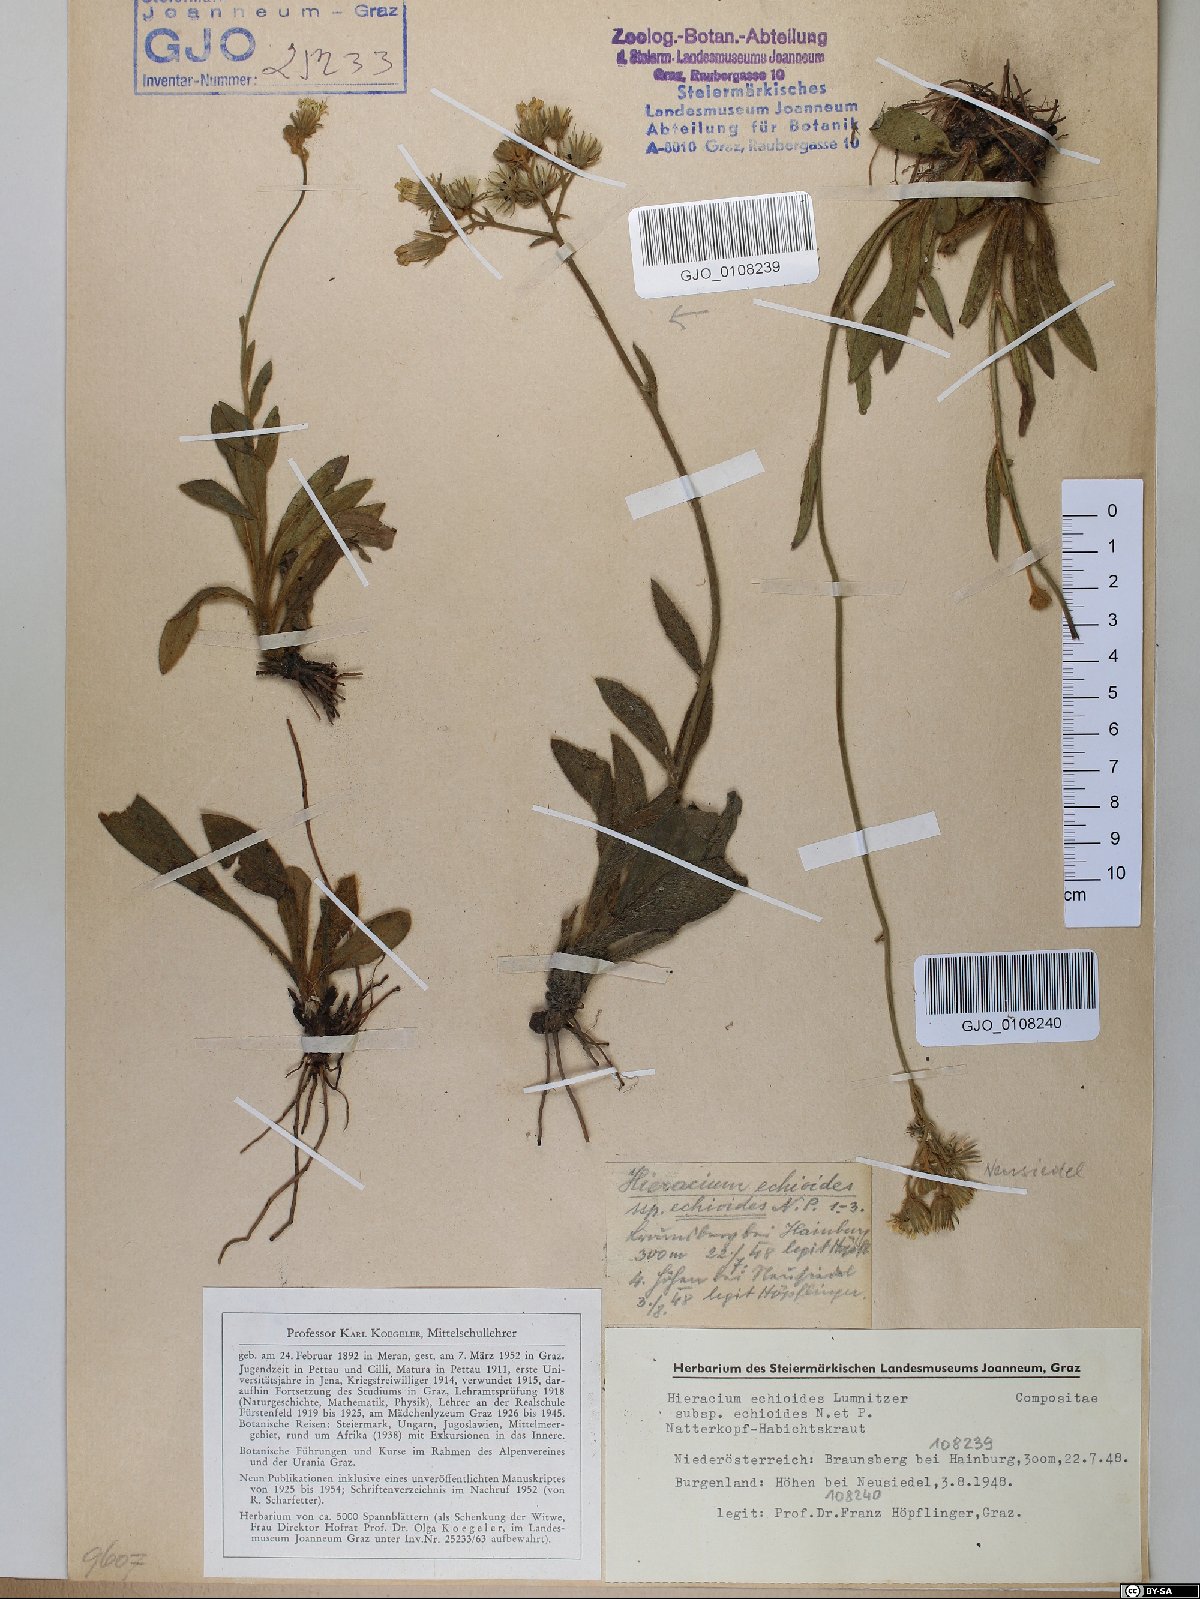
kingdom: Plantae
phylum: Tracheophyta
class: Magnoliopsida
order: Asterales
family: Asteraceae
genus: Pilosella
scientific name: Pilosella echioides
